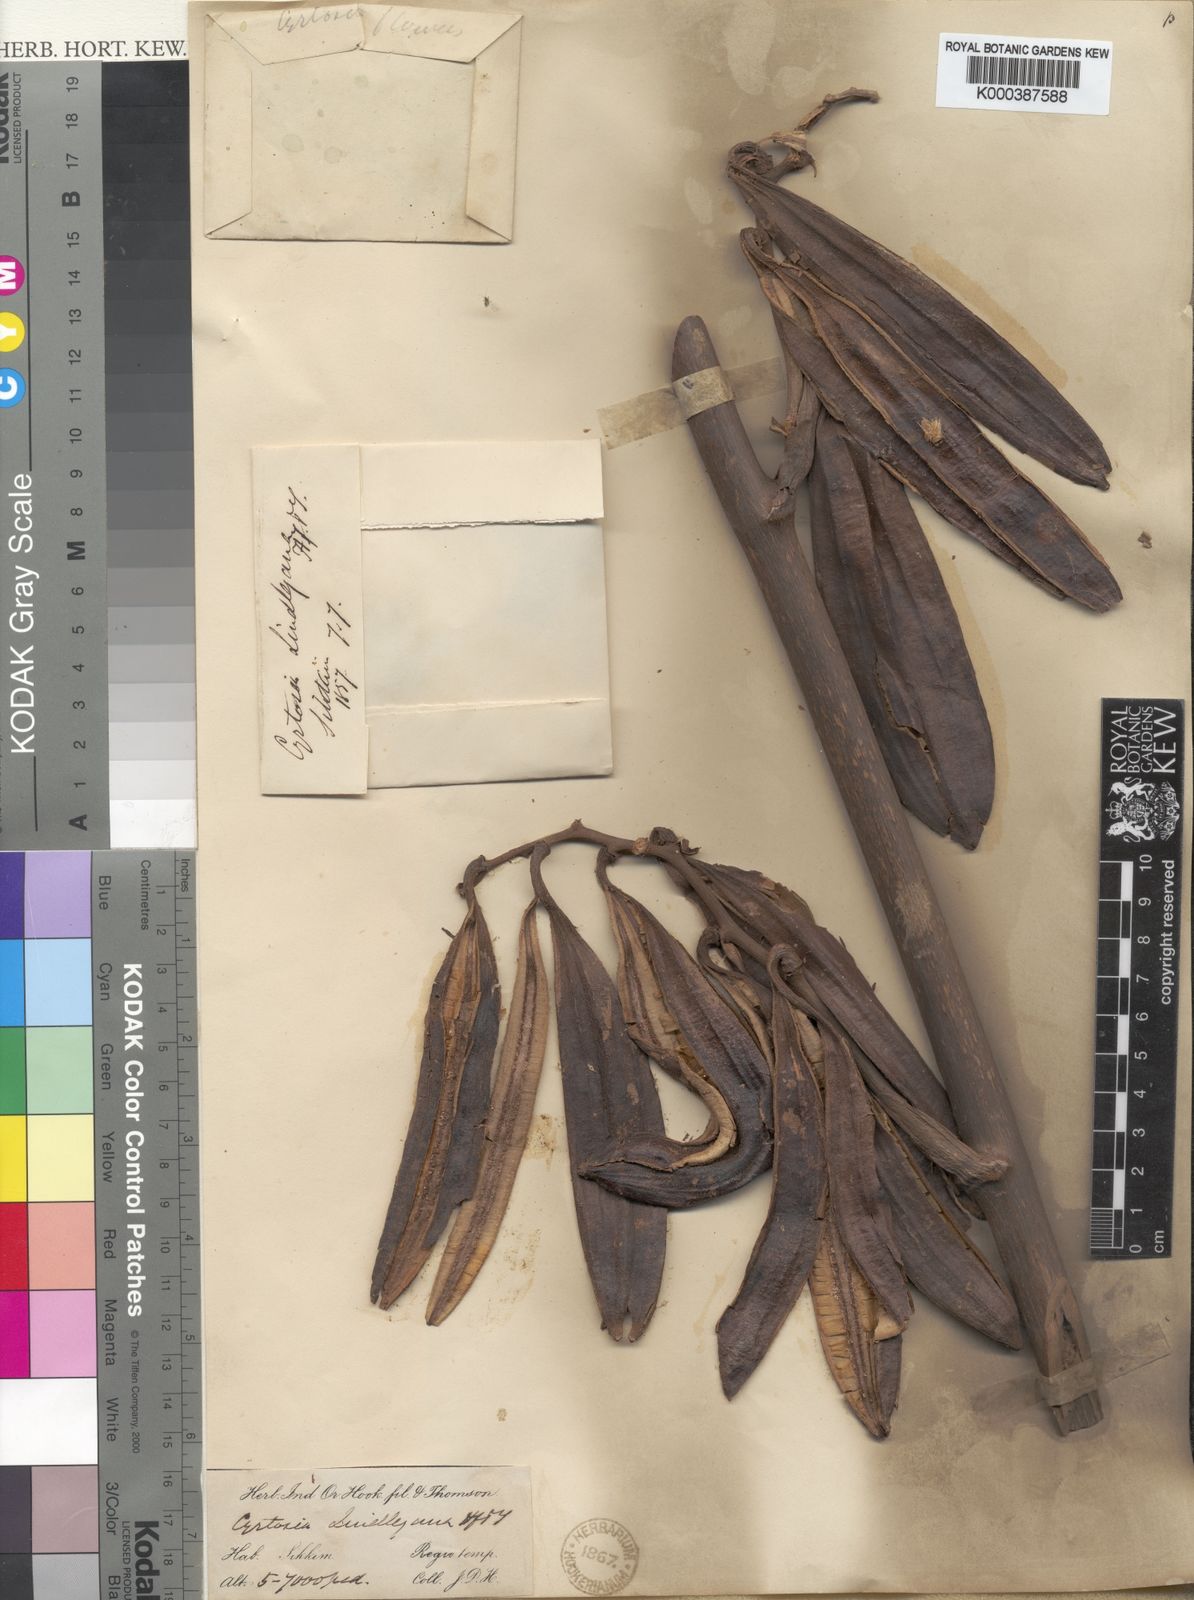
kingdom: Plantae
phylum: Tracheophyta
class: Liliopsida
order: Asparagales
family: Orchidaceae
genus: Cyrtosia
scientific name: Cyrtosia lindleyana
